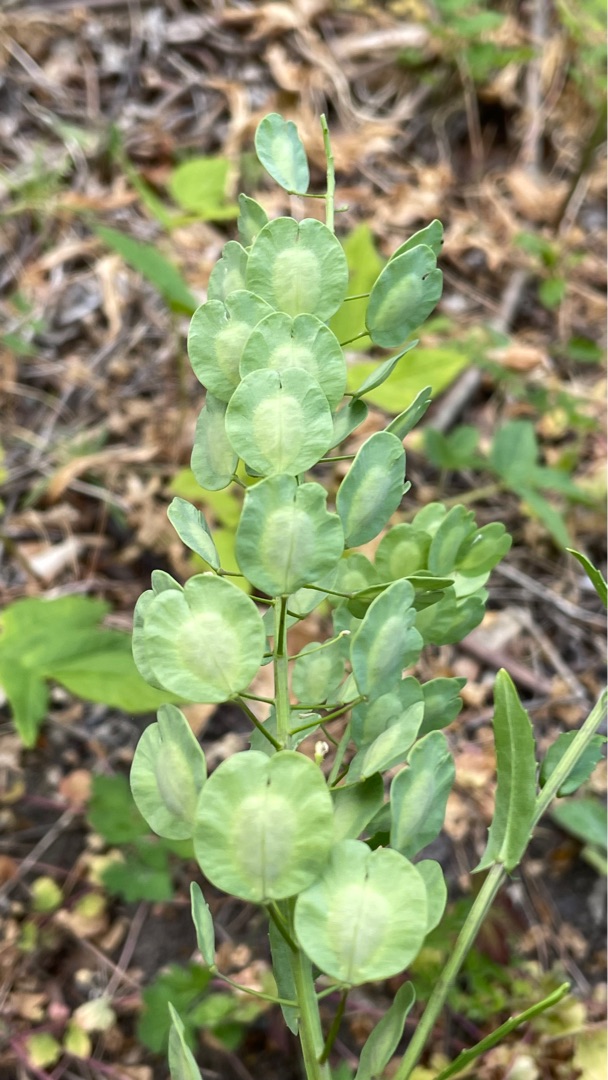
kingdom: Plantae
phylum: Tracheophyta
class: Magnoliopsida
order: Brassicales
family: Brassicaceae
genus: Thlaspi
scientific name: Thlaspi arvense
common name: Almindelig pengeurt
